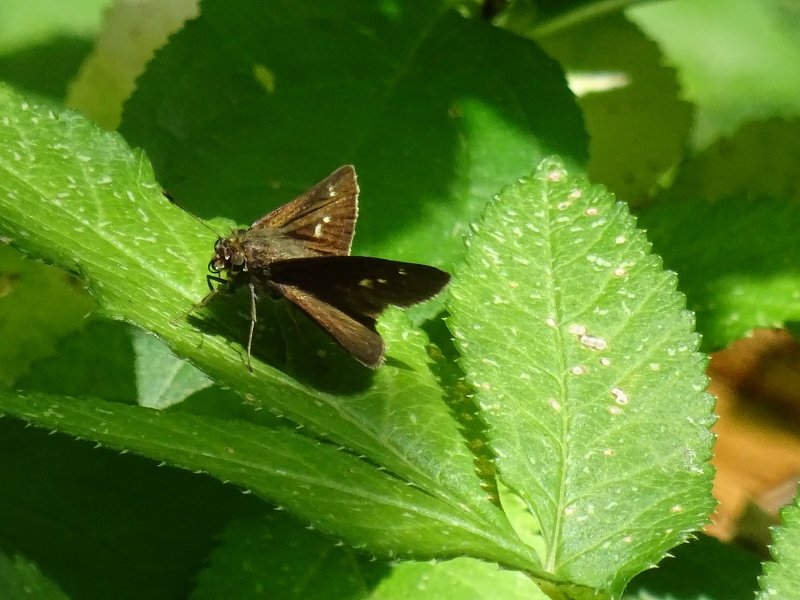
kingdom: Animalia
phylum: Arthropoda
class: Insecta
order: Lepidoptera
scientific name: Lepidoptera
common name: Butterflies
